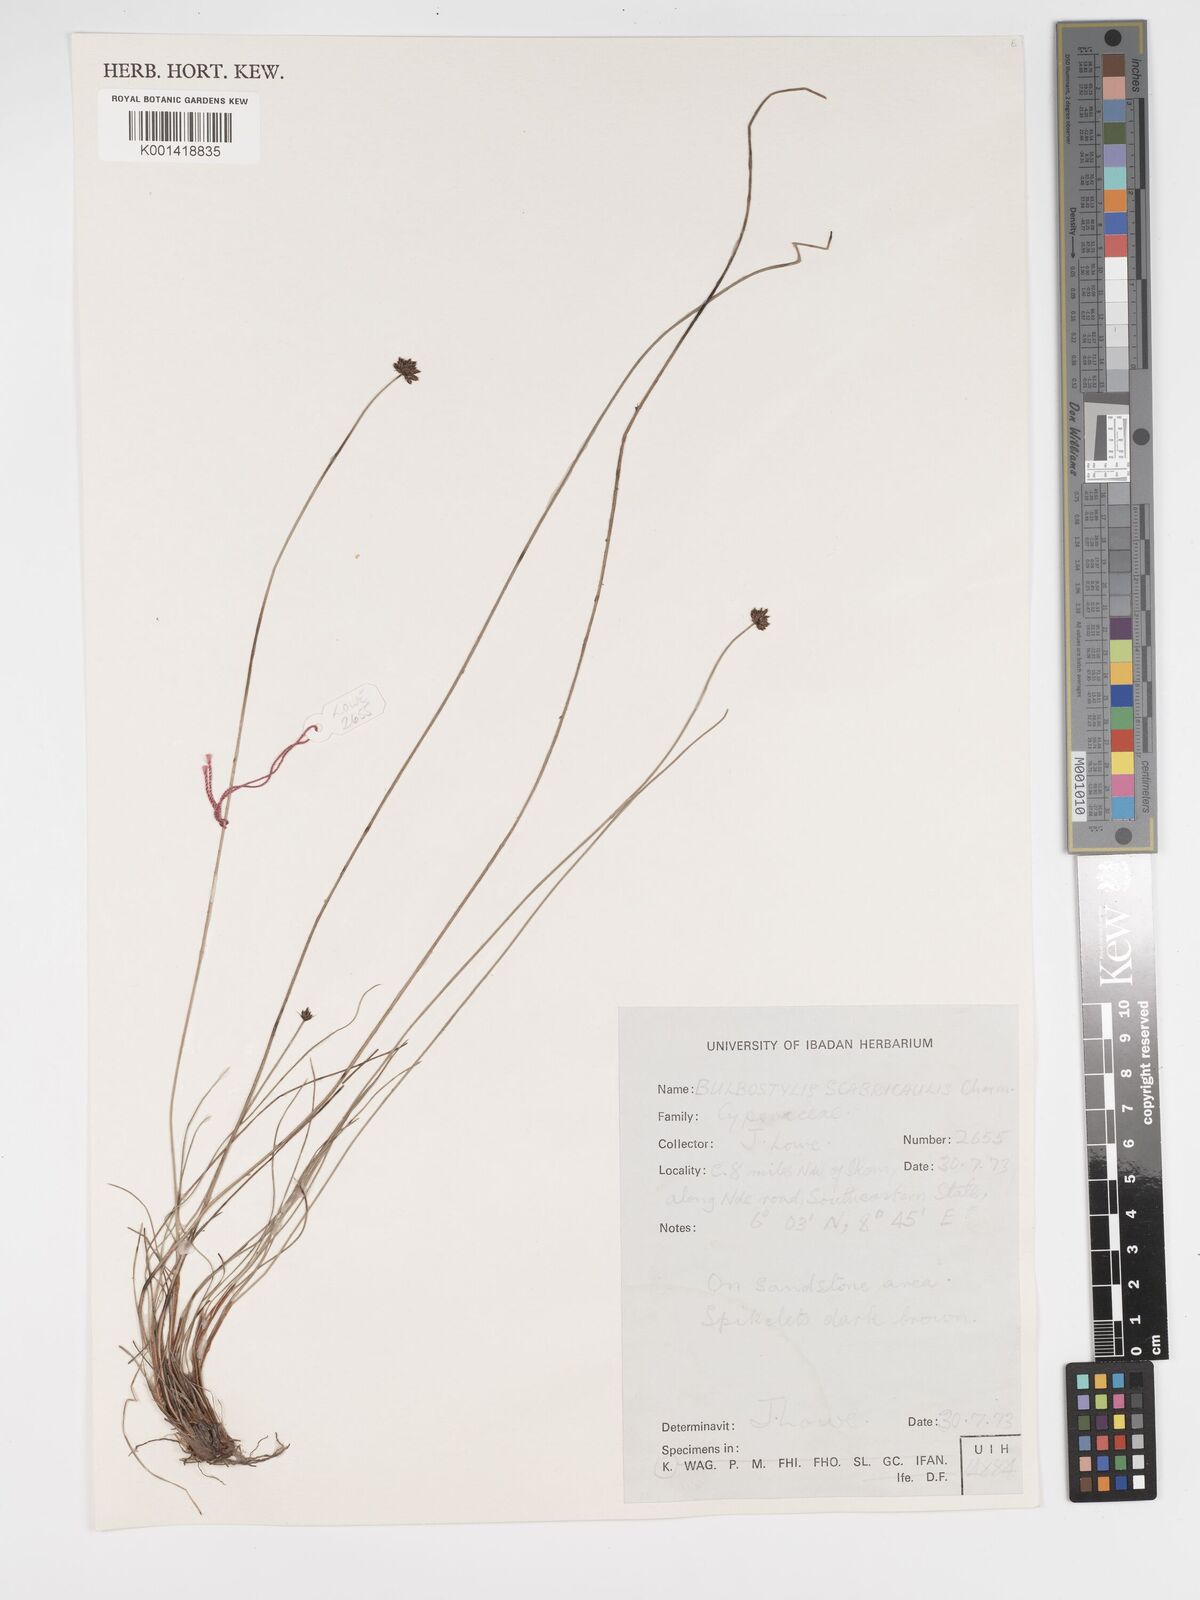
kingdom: Plantae
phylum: Tracheophyta
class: Liliopsida
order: Poales
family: Cyperaceae
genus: Bulbostylis
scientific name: Bulbostylis scabricaulis
